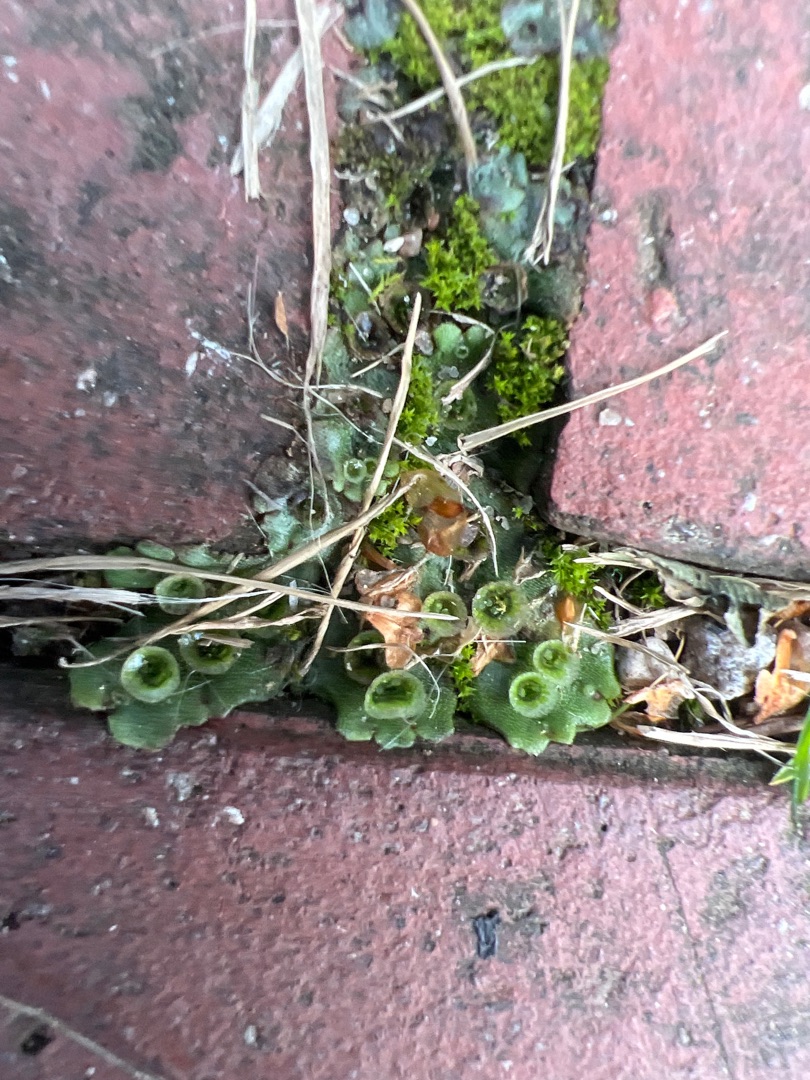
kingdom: Plantae
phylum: Marchantiophyta
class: Marchantiopsida
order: Marchantiales
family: Marchantiaceae
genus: Marchantia
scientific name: Marchantia polymorpha
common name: Almindelig lungemos (underart)
